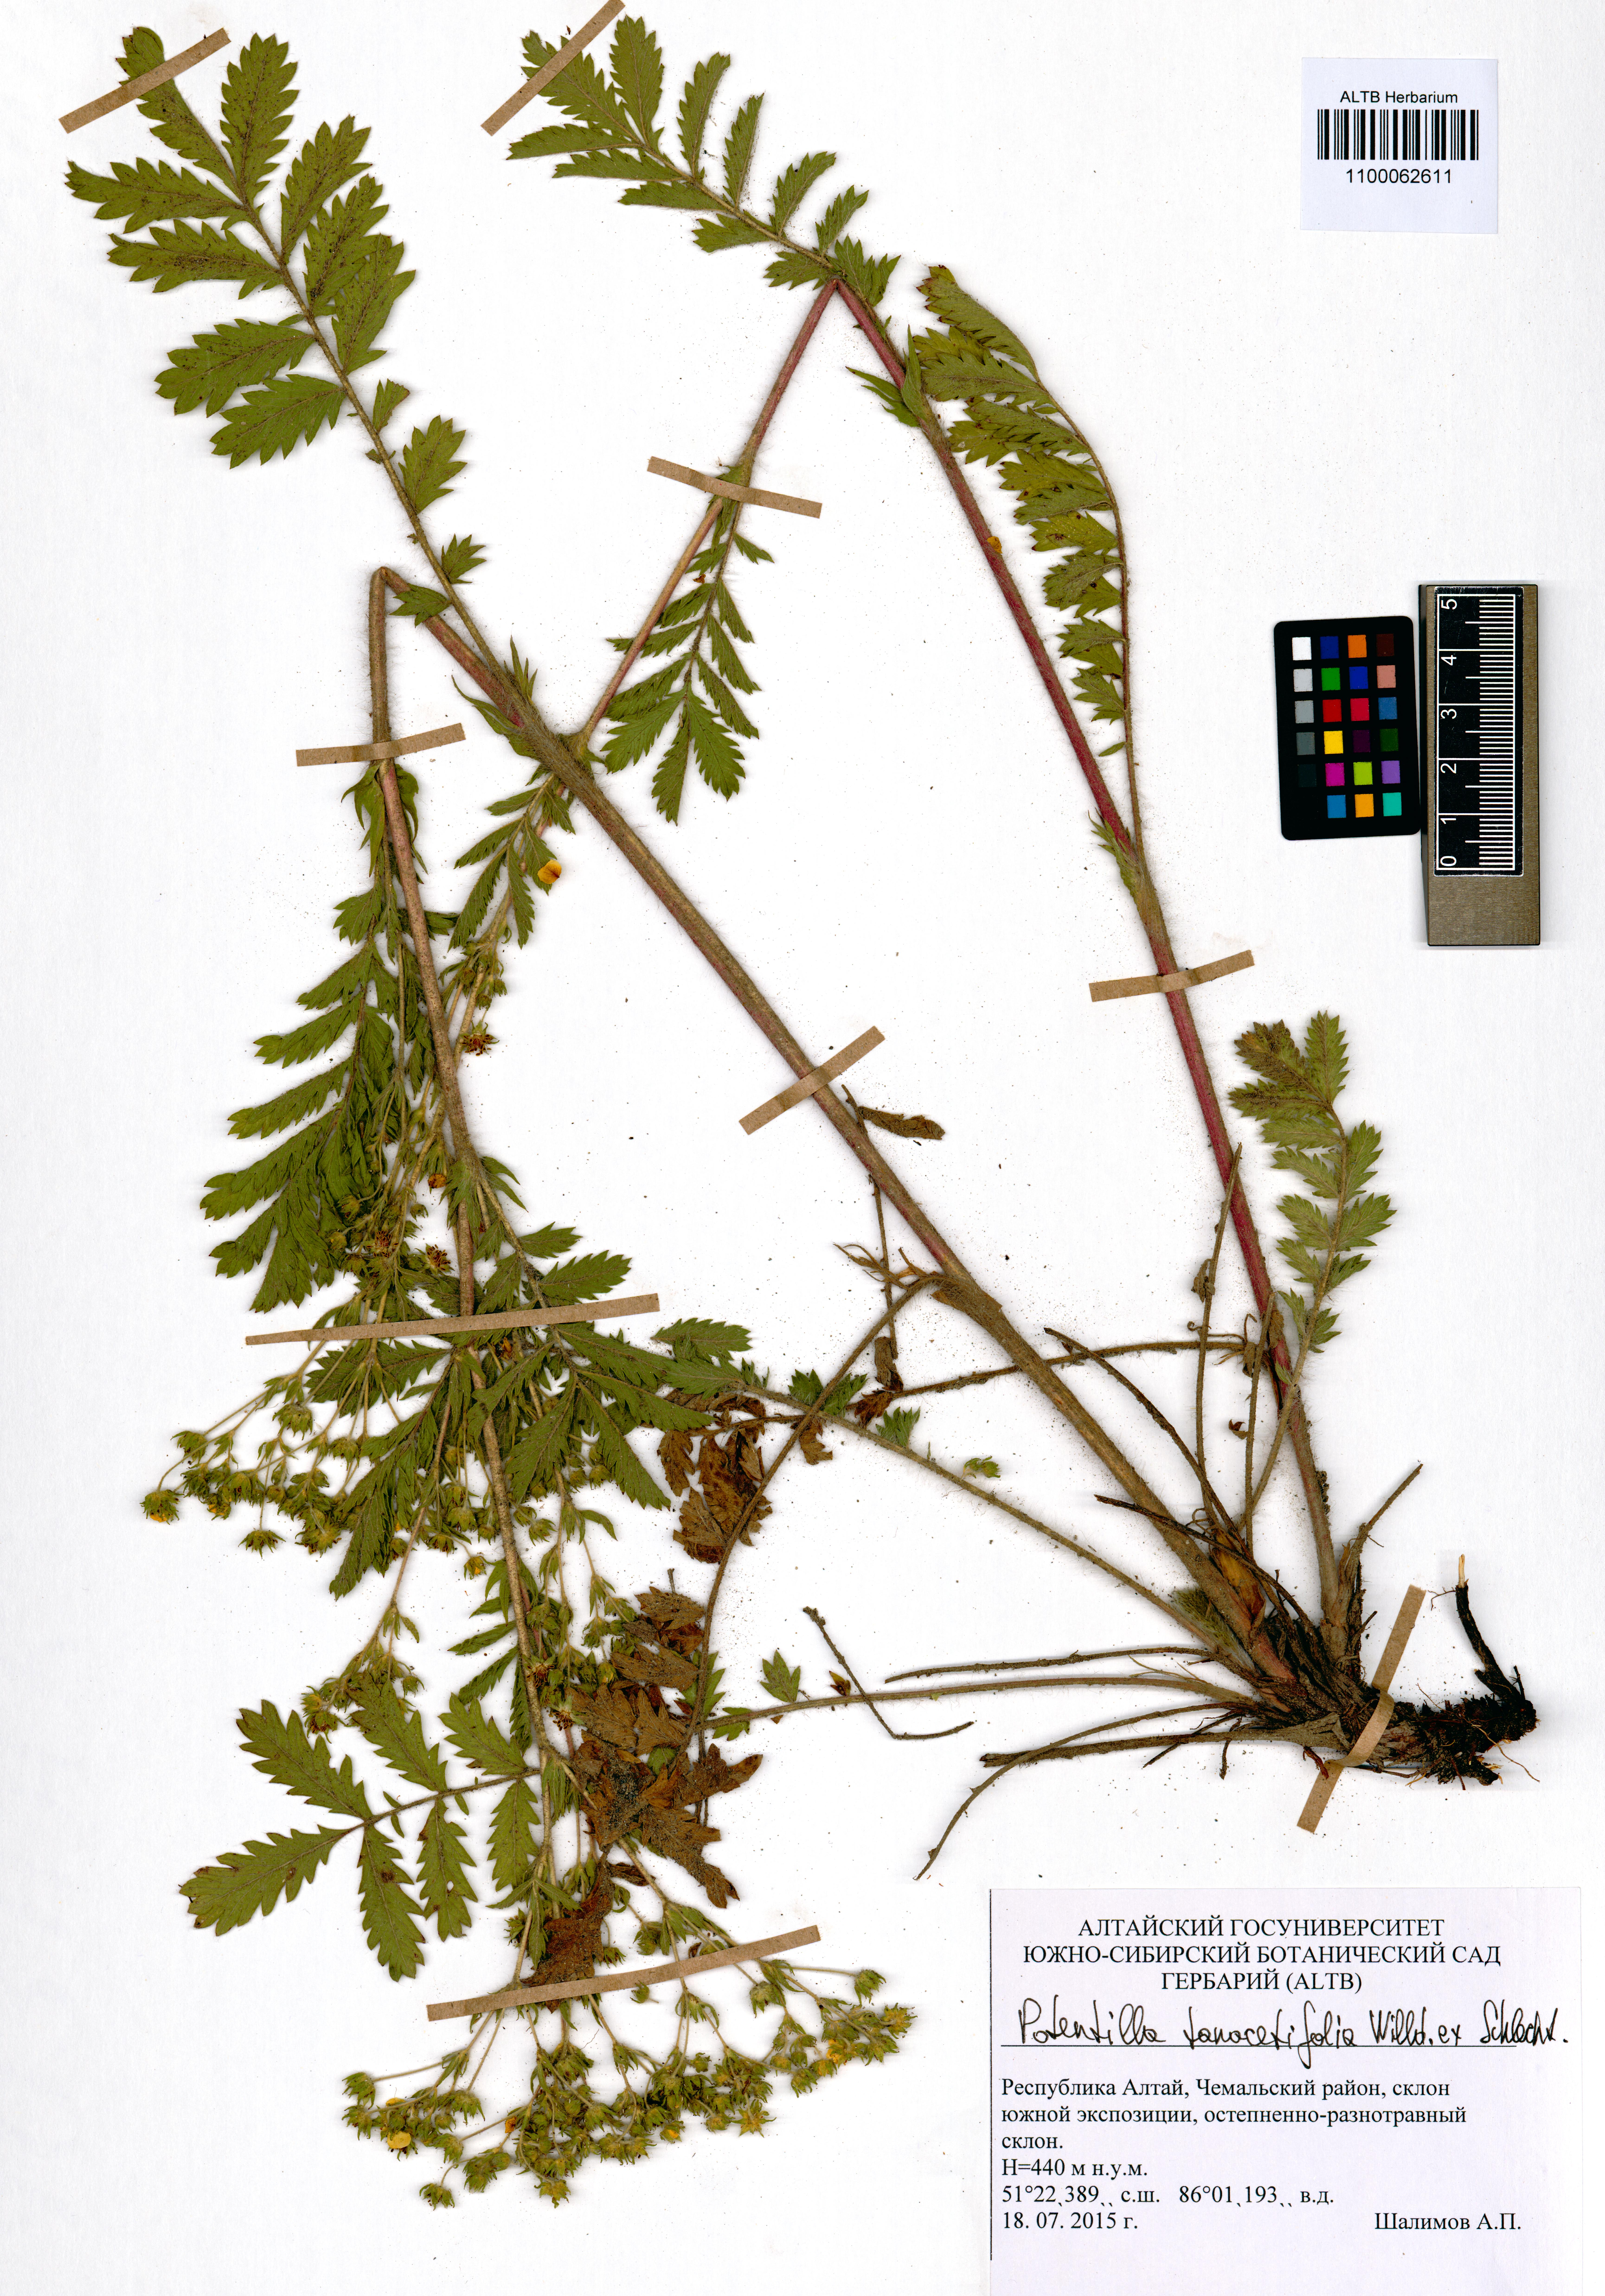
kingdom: Plantae
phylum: Tracheophyta
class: Magnoliopsida
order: Rosales
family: Rosaceae
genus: Potentilla
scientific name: Potentilla tanacetifolia
